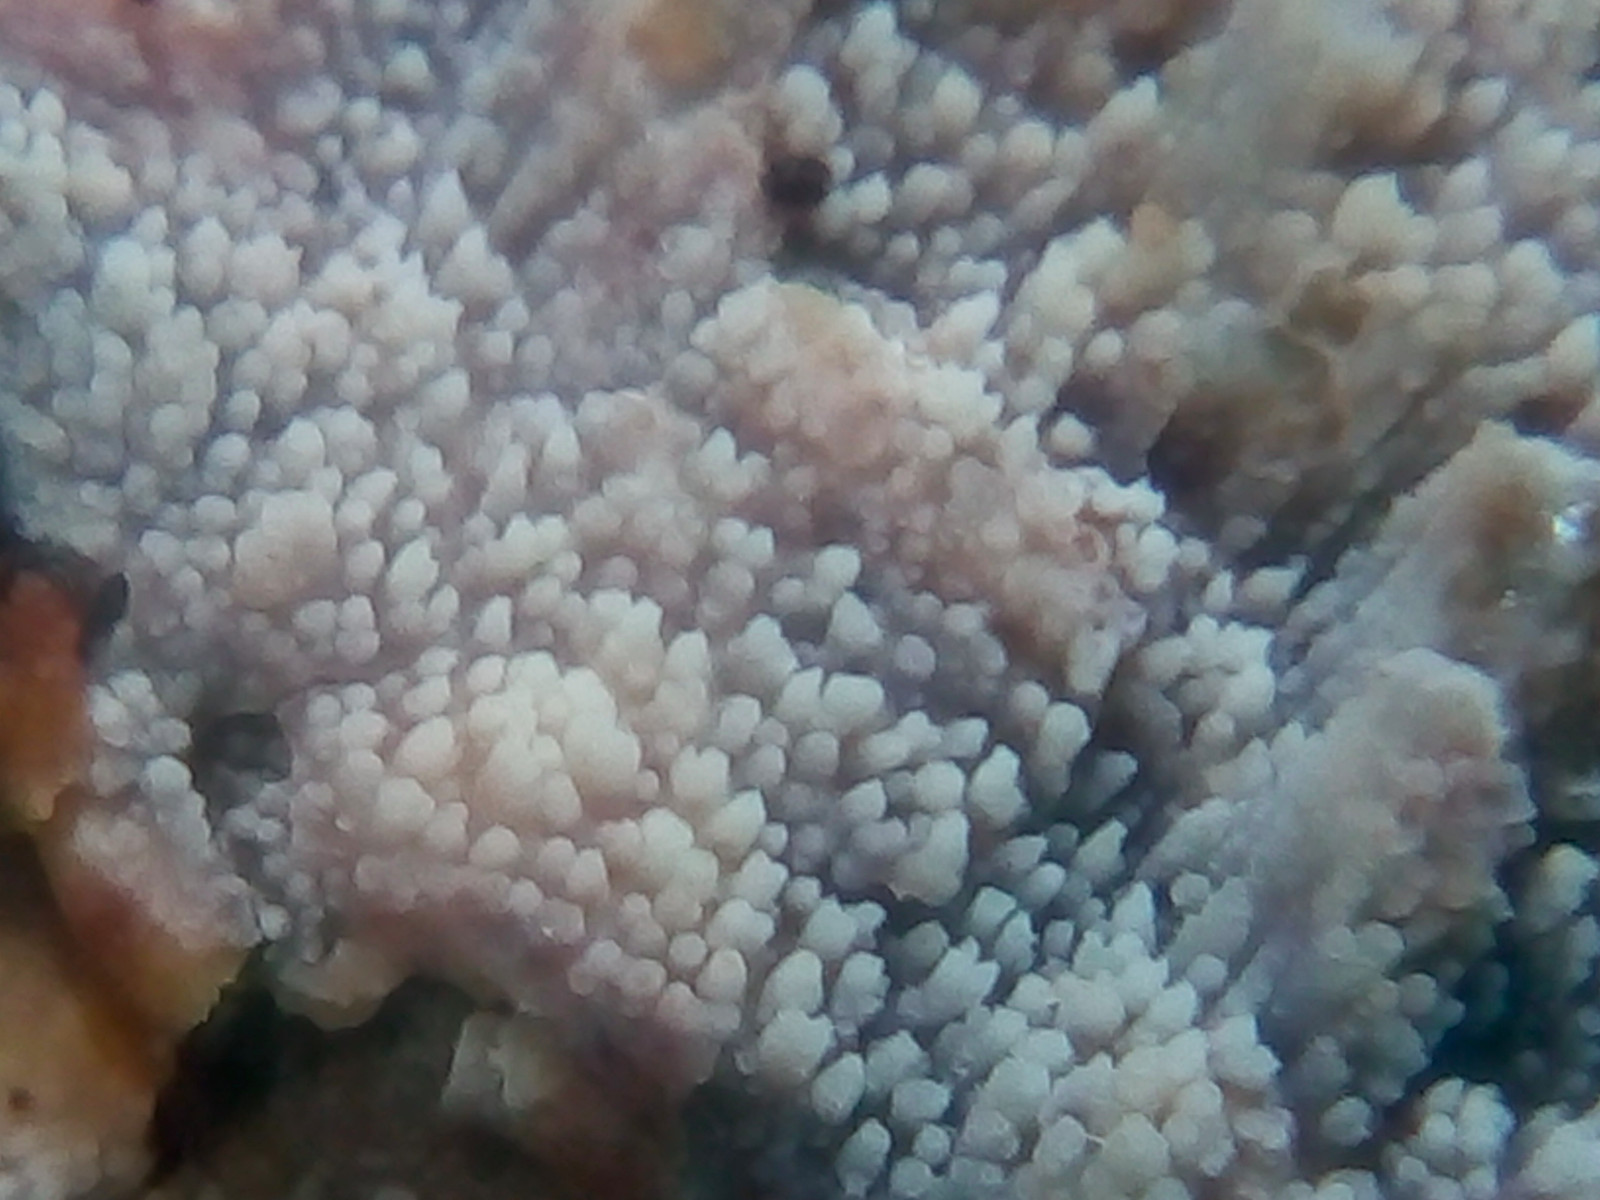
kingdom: Fungi
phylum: Basidiomycota
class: Agaricomycetes
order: Hymenochaetales
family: Rickenellaceae
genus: Resinicium
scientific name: Resinicium bicolor
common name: almindelig vokstand
